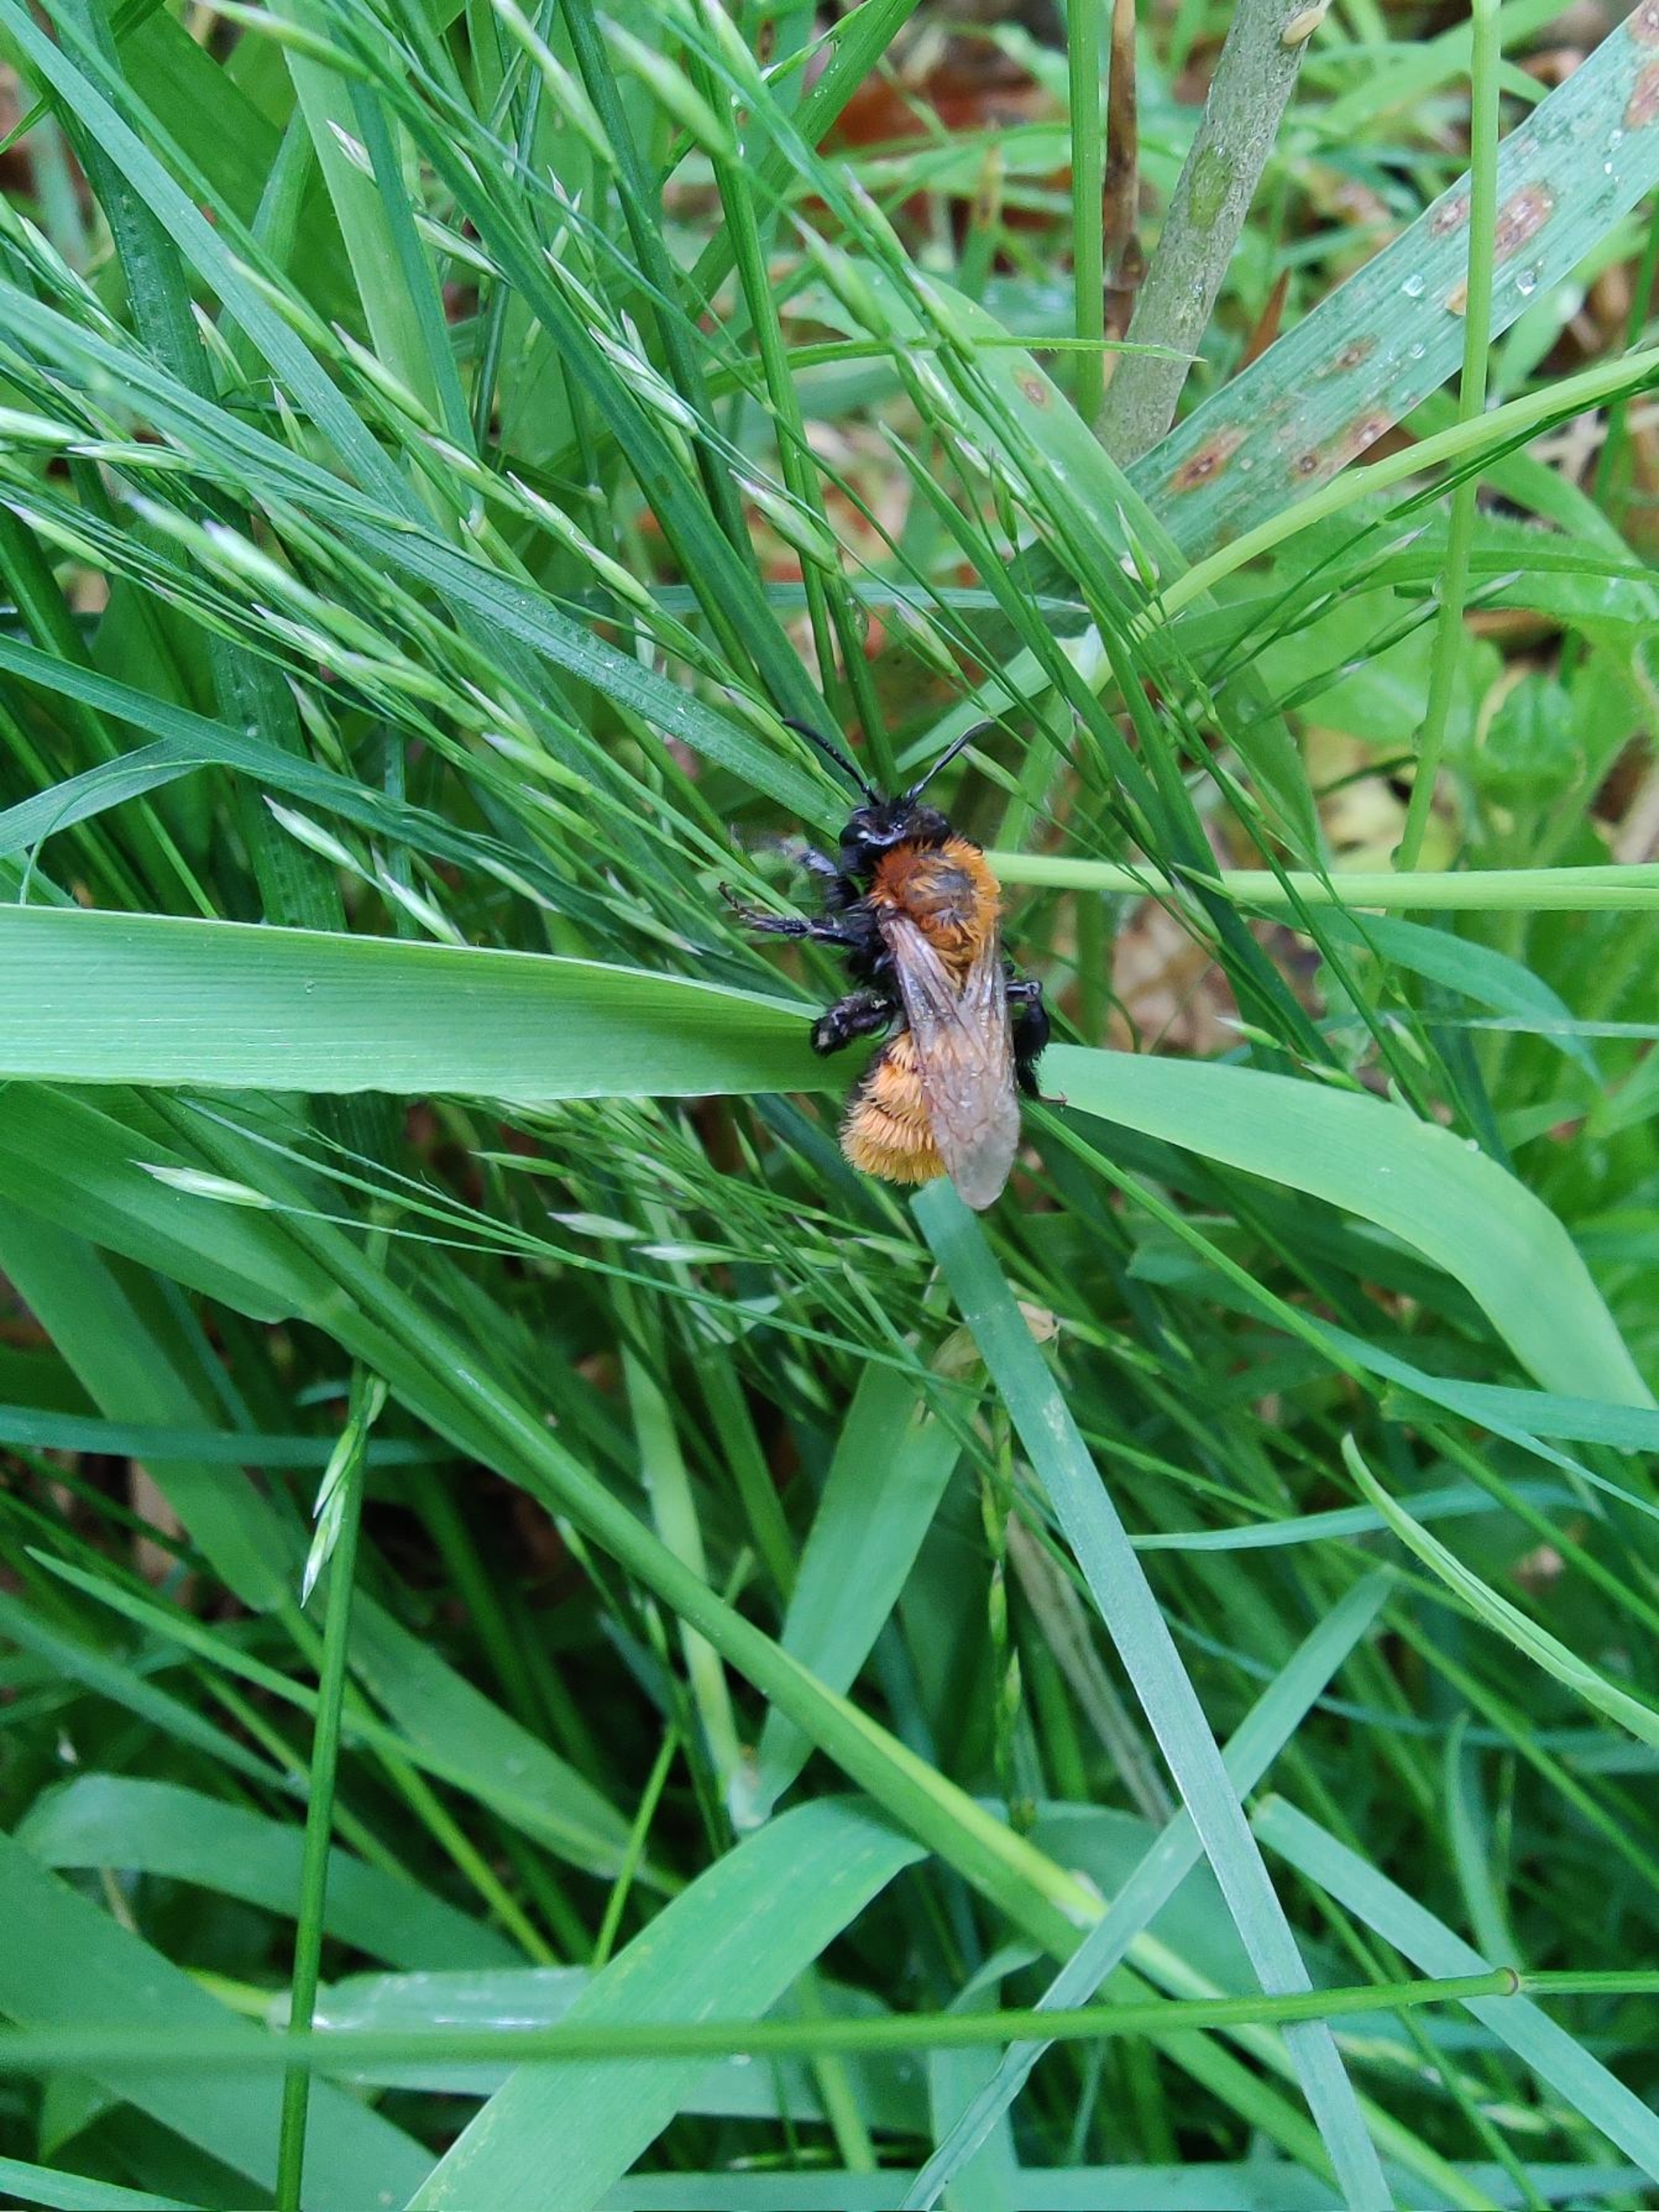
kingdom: Animalia
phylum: Arthropoda
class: Insecta
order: Hymenoptera
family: Andrenidae
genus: Andrena
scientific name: Andrena fulva
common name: Rødpelset jordbi
